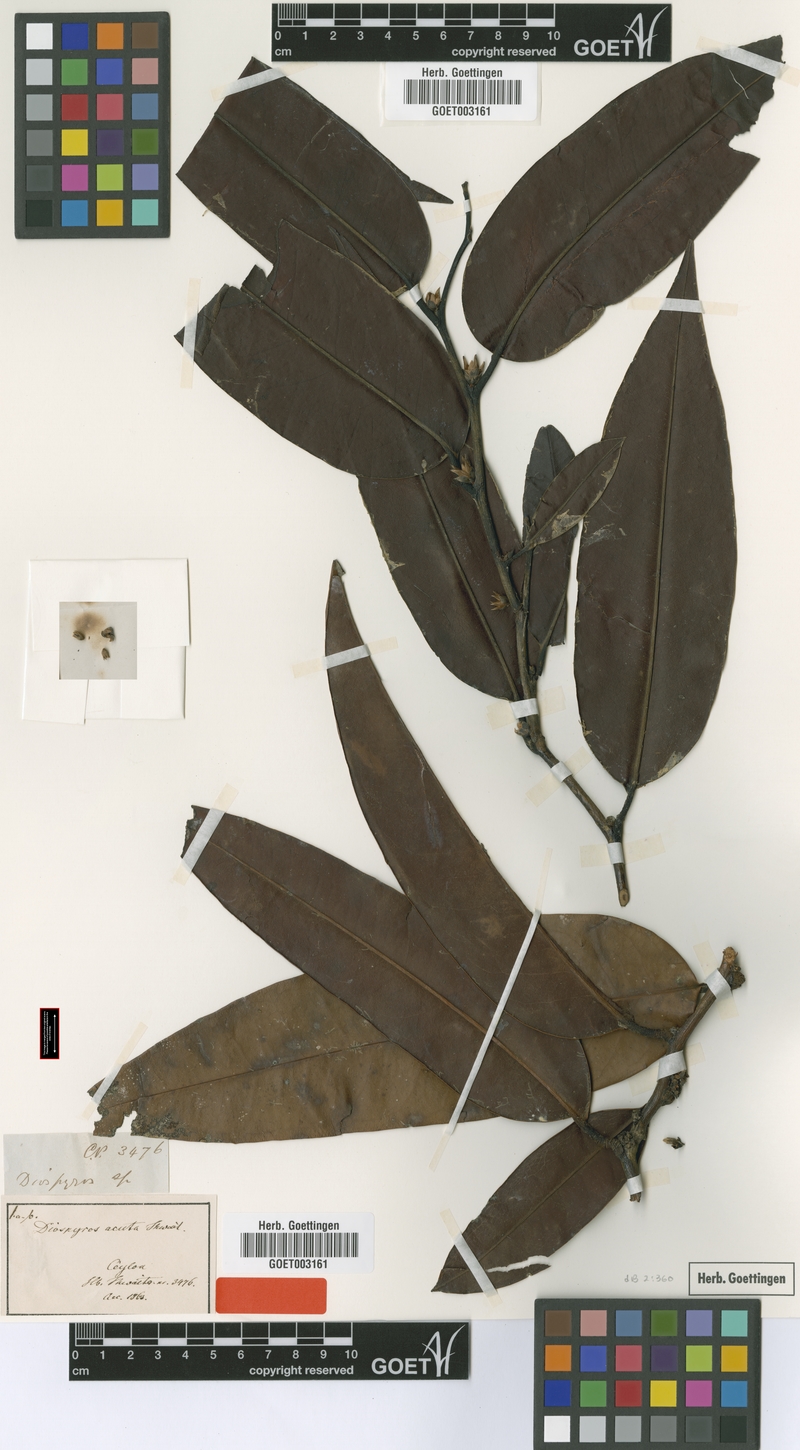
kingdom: Plantae
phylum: Tracheophyta
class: Magnoliopsida
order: Ericales
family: Ebenaceae
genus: Diospyros
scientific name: Diospyros acuta
